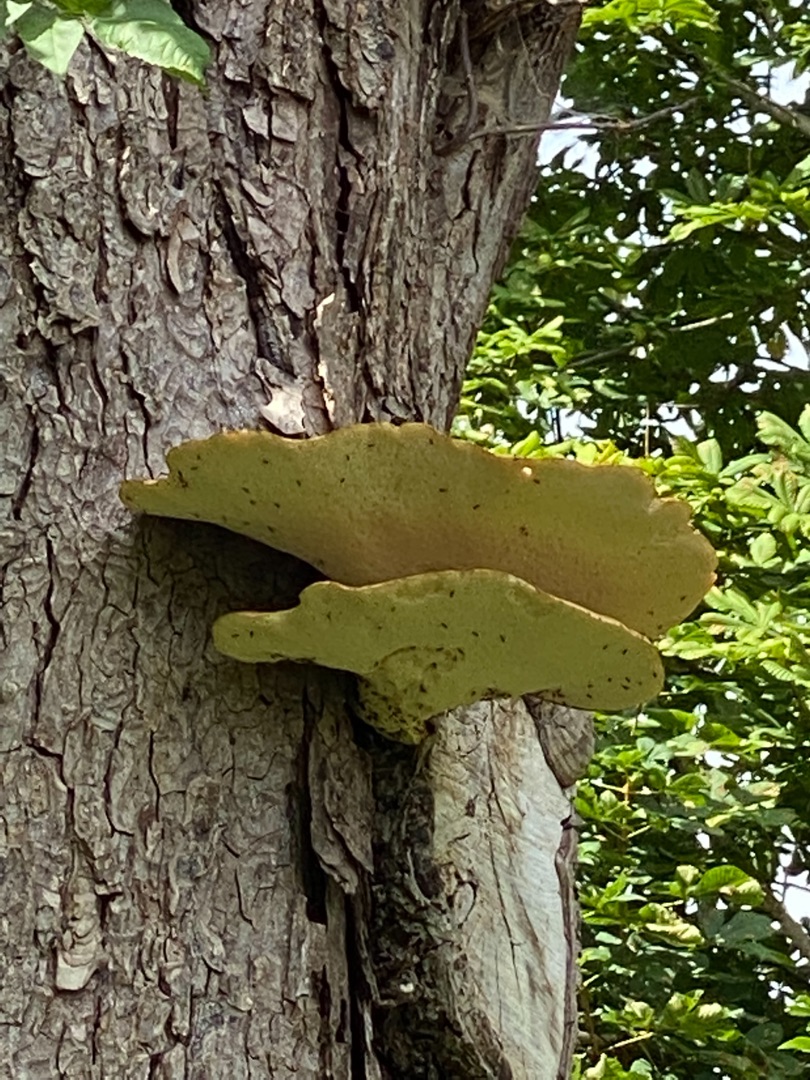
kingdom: Fungi
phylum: Basidiomycota
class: Agaricomycetes
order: Polyporales
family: Polyporaceae
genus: Cerioporus
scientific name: Cerioporus squamosus
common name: Skællet stilkporesvamp
